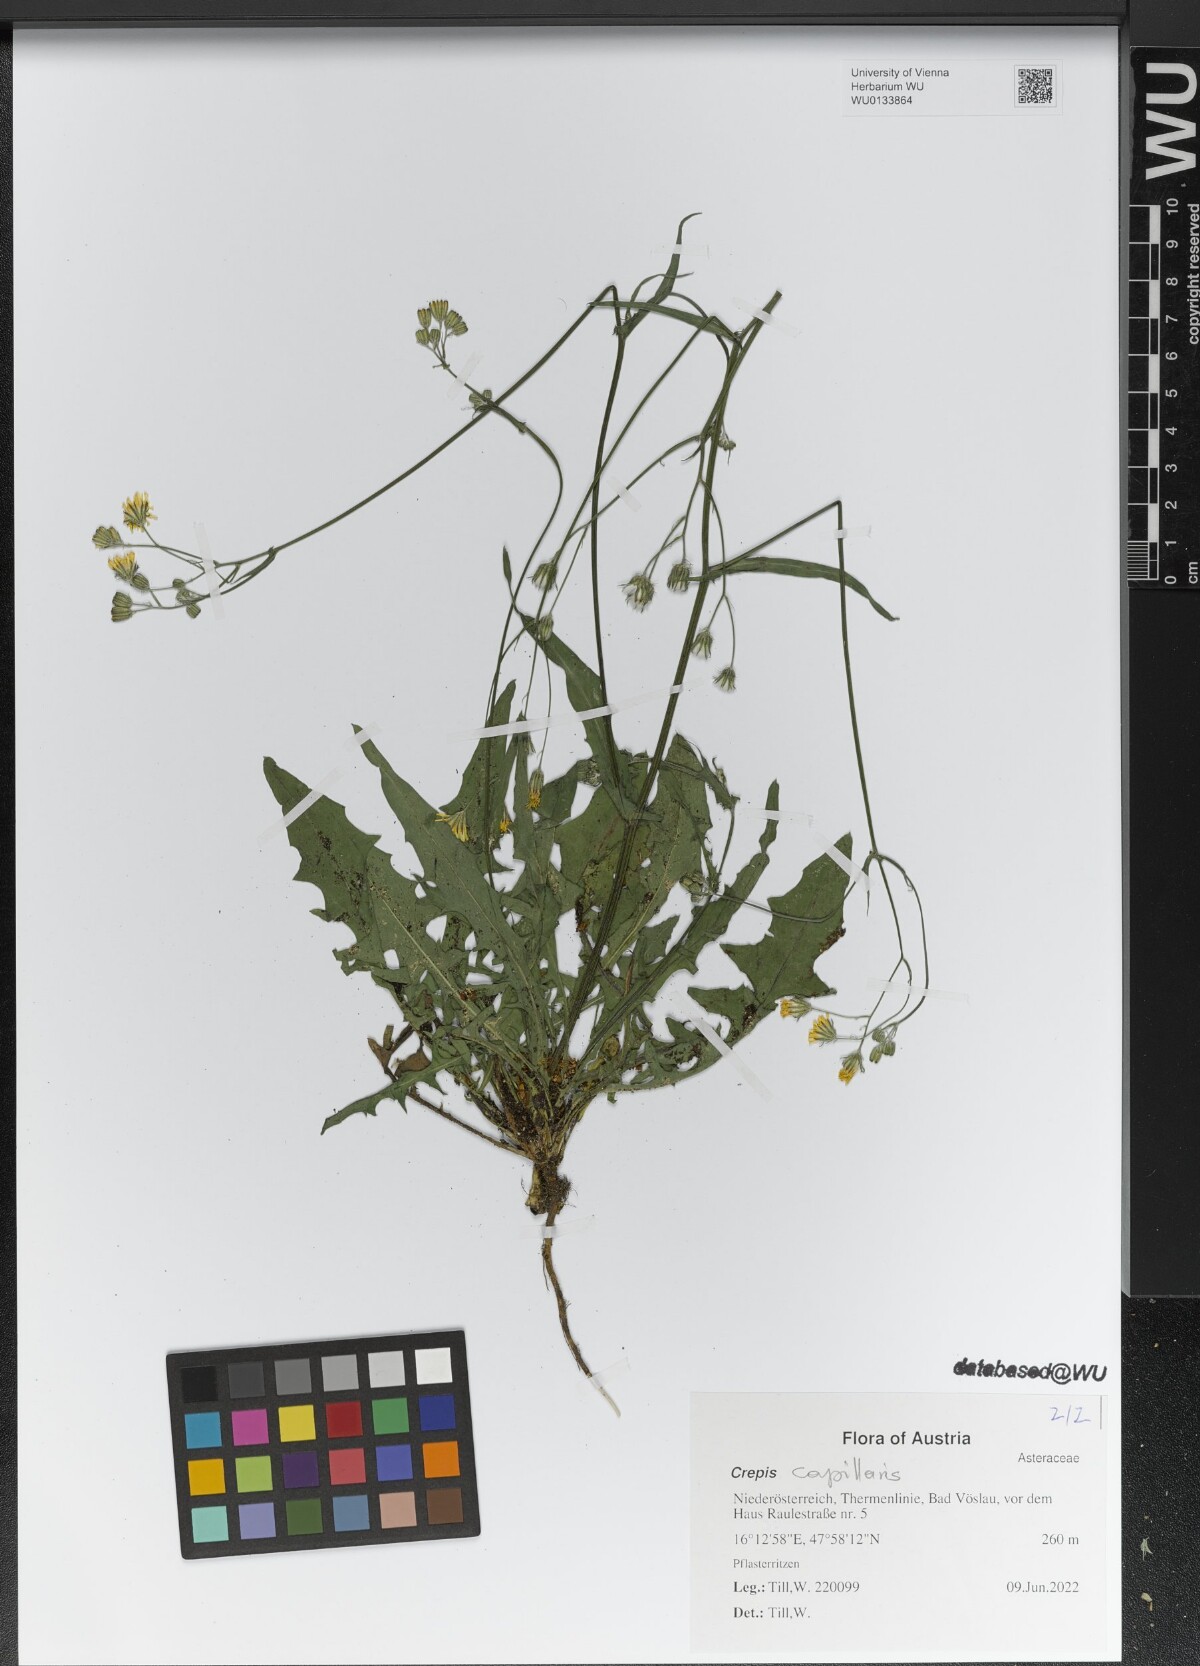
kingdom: Plantae
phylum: Tracheophyta
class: Magnoliopsida
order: Asterales
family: Asteraceae
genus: Crepis
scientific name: Crepis capillaris
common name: Smooth hawksbeard
